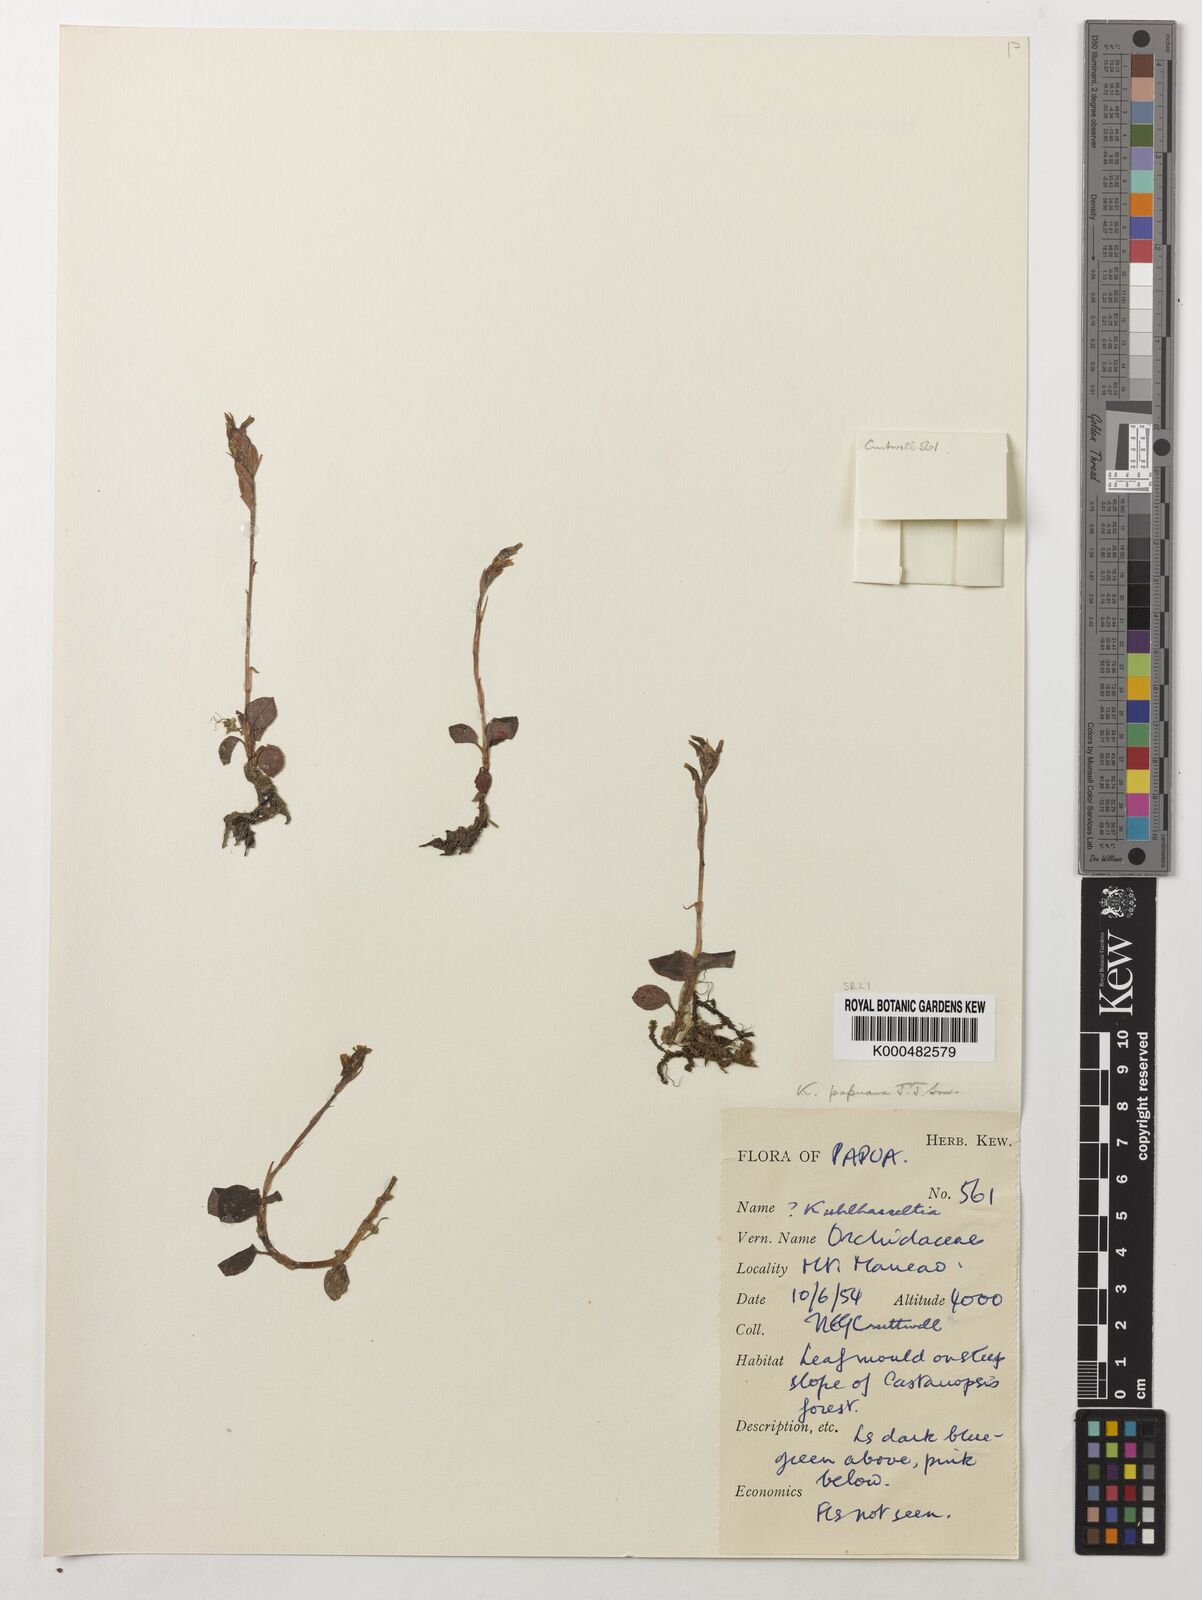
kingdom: Plantae
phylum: Tracheophyta
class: Liliopsida
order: Asparagales
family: Orchidaceae
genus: Odontochilus
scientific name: Odontochilus papuanus
